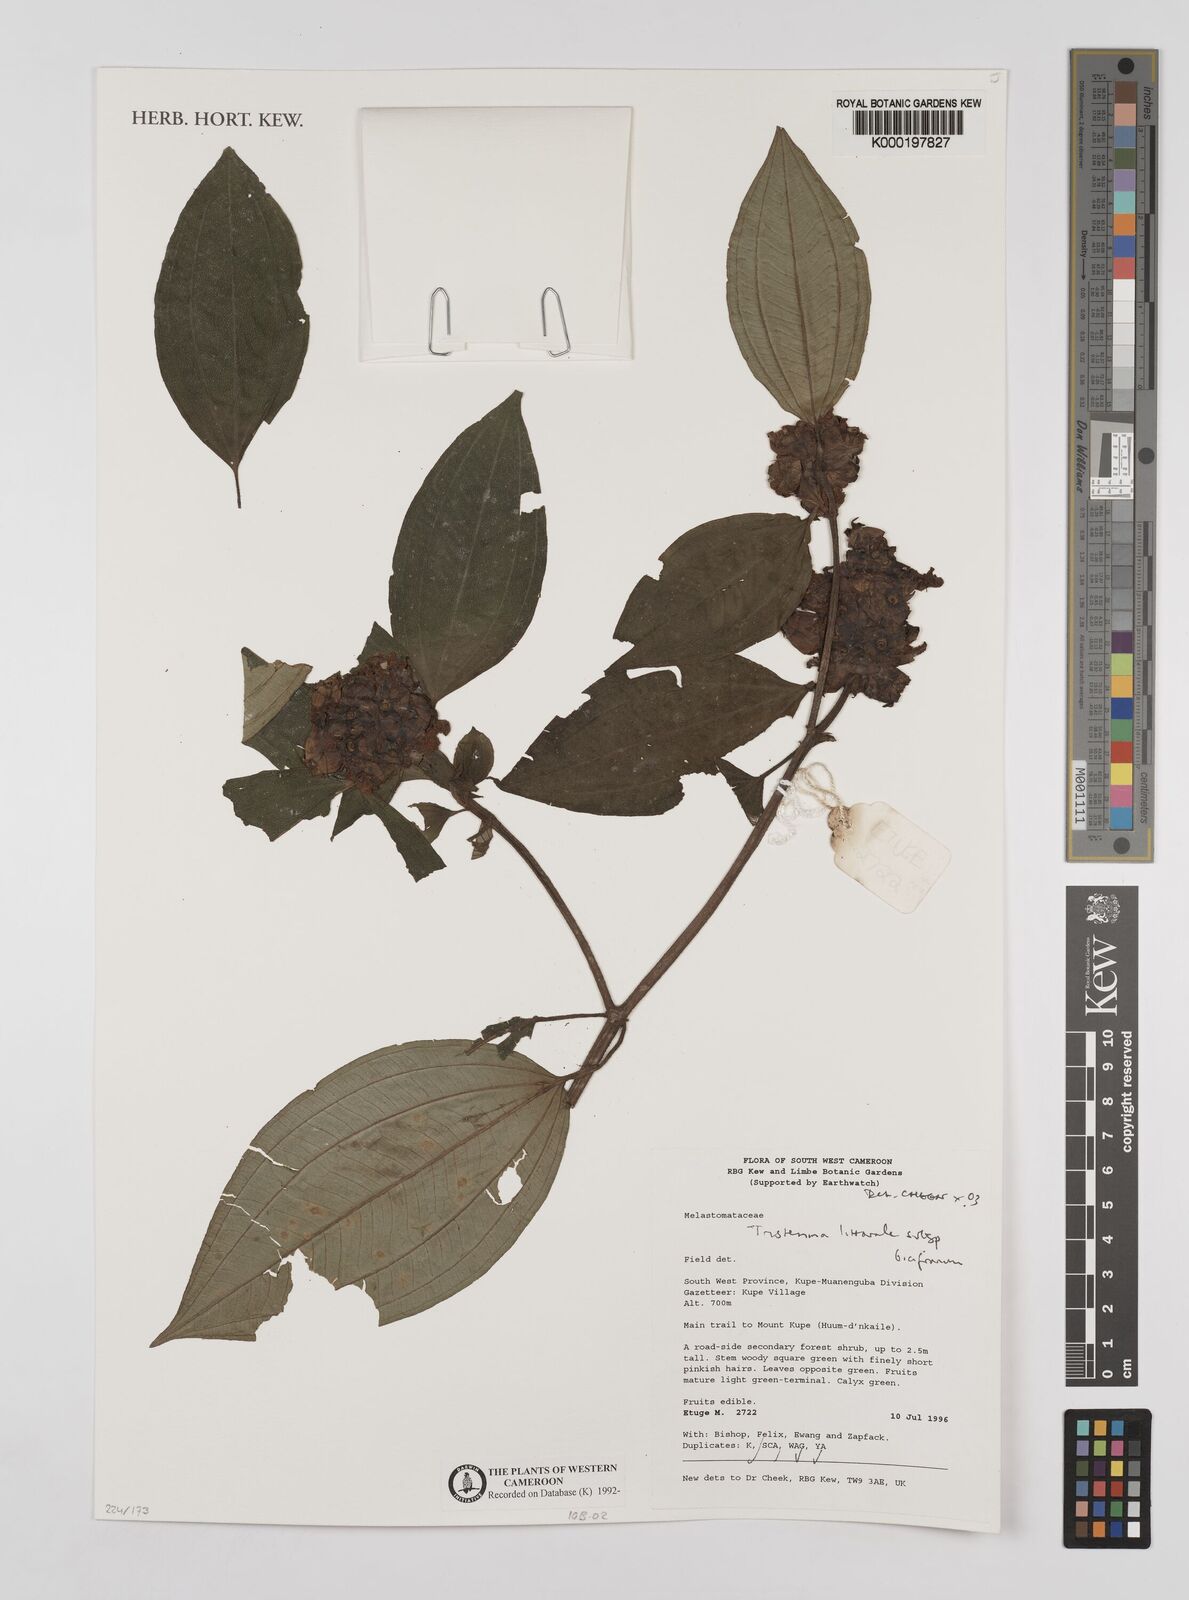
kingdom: Plantae
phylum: Tracheophyta
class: Magnoliopsida
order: Myrtales
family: Melastomataceae
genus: Tristemma
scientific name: Tristemma littorale
